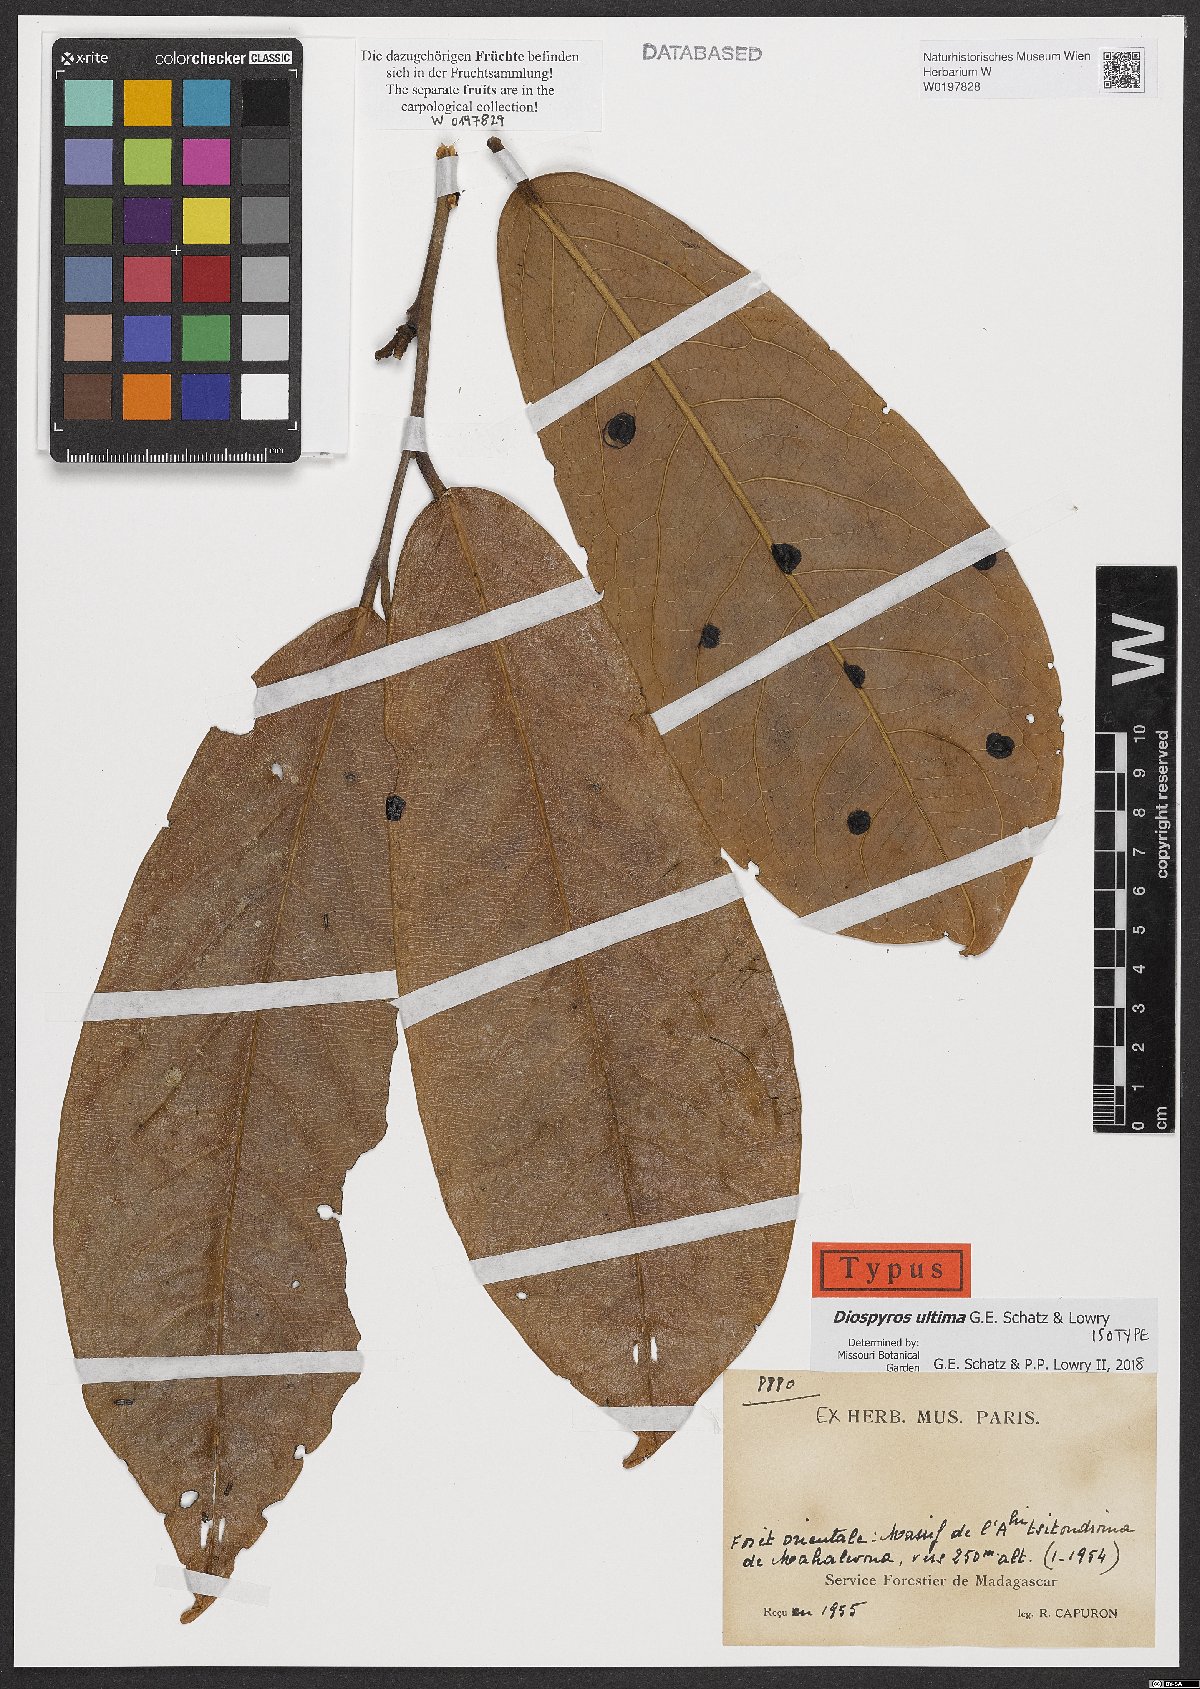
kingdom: Plantae
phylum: Tracheophyta
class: Magnoliopsida
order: Ericales
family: Ebenaceae
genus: Diospyros
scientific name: Diospyros ultima
